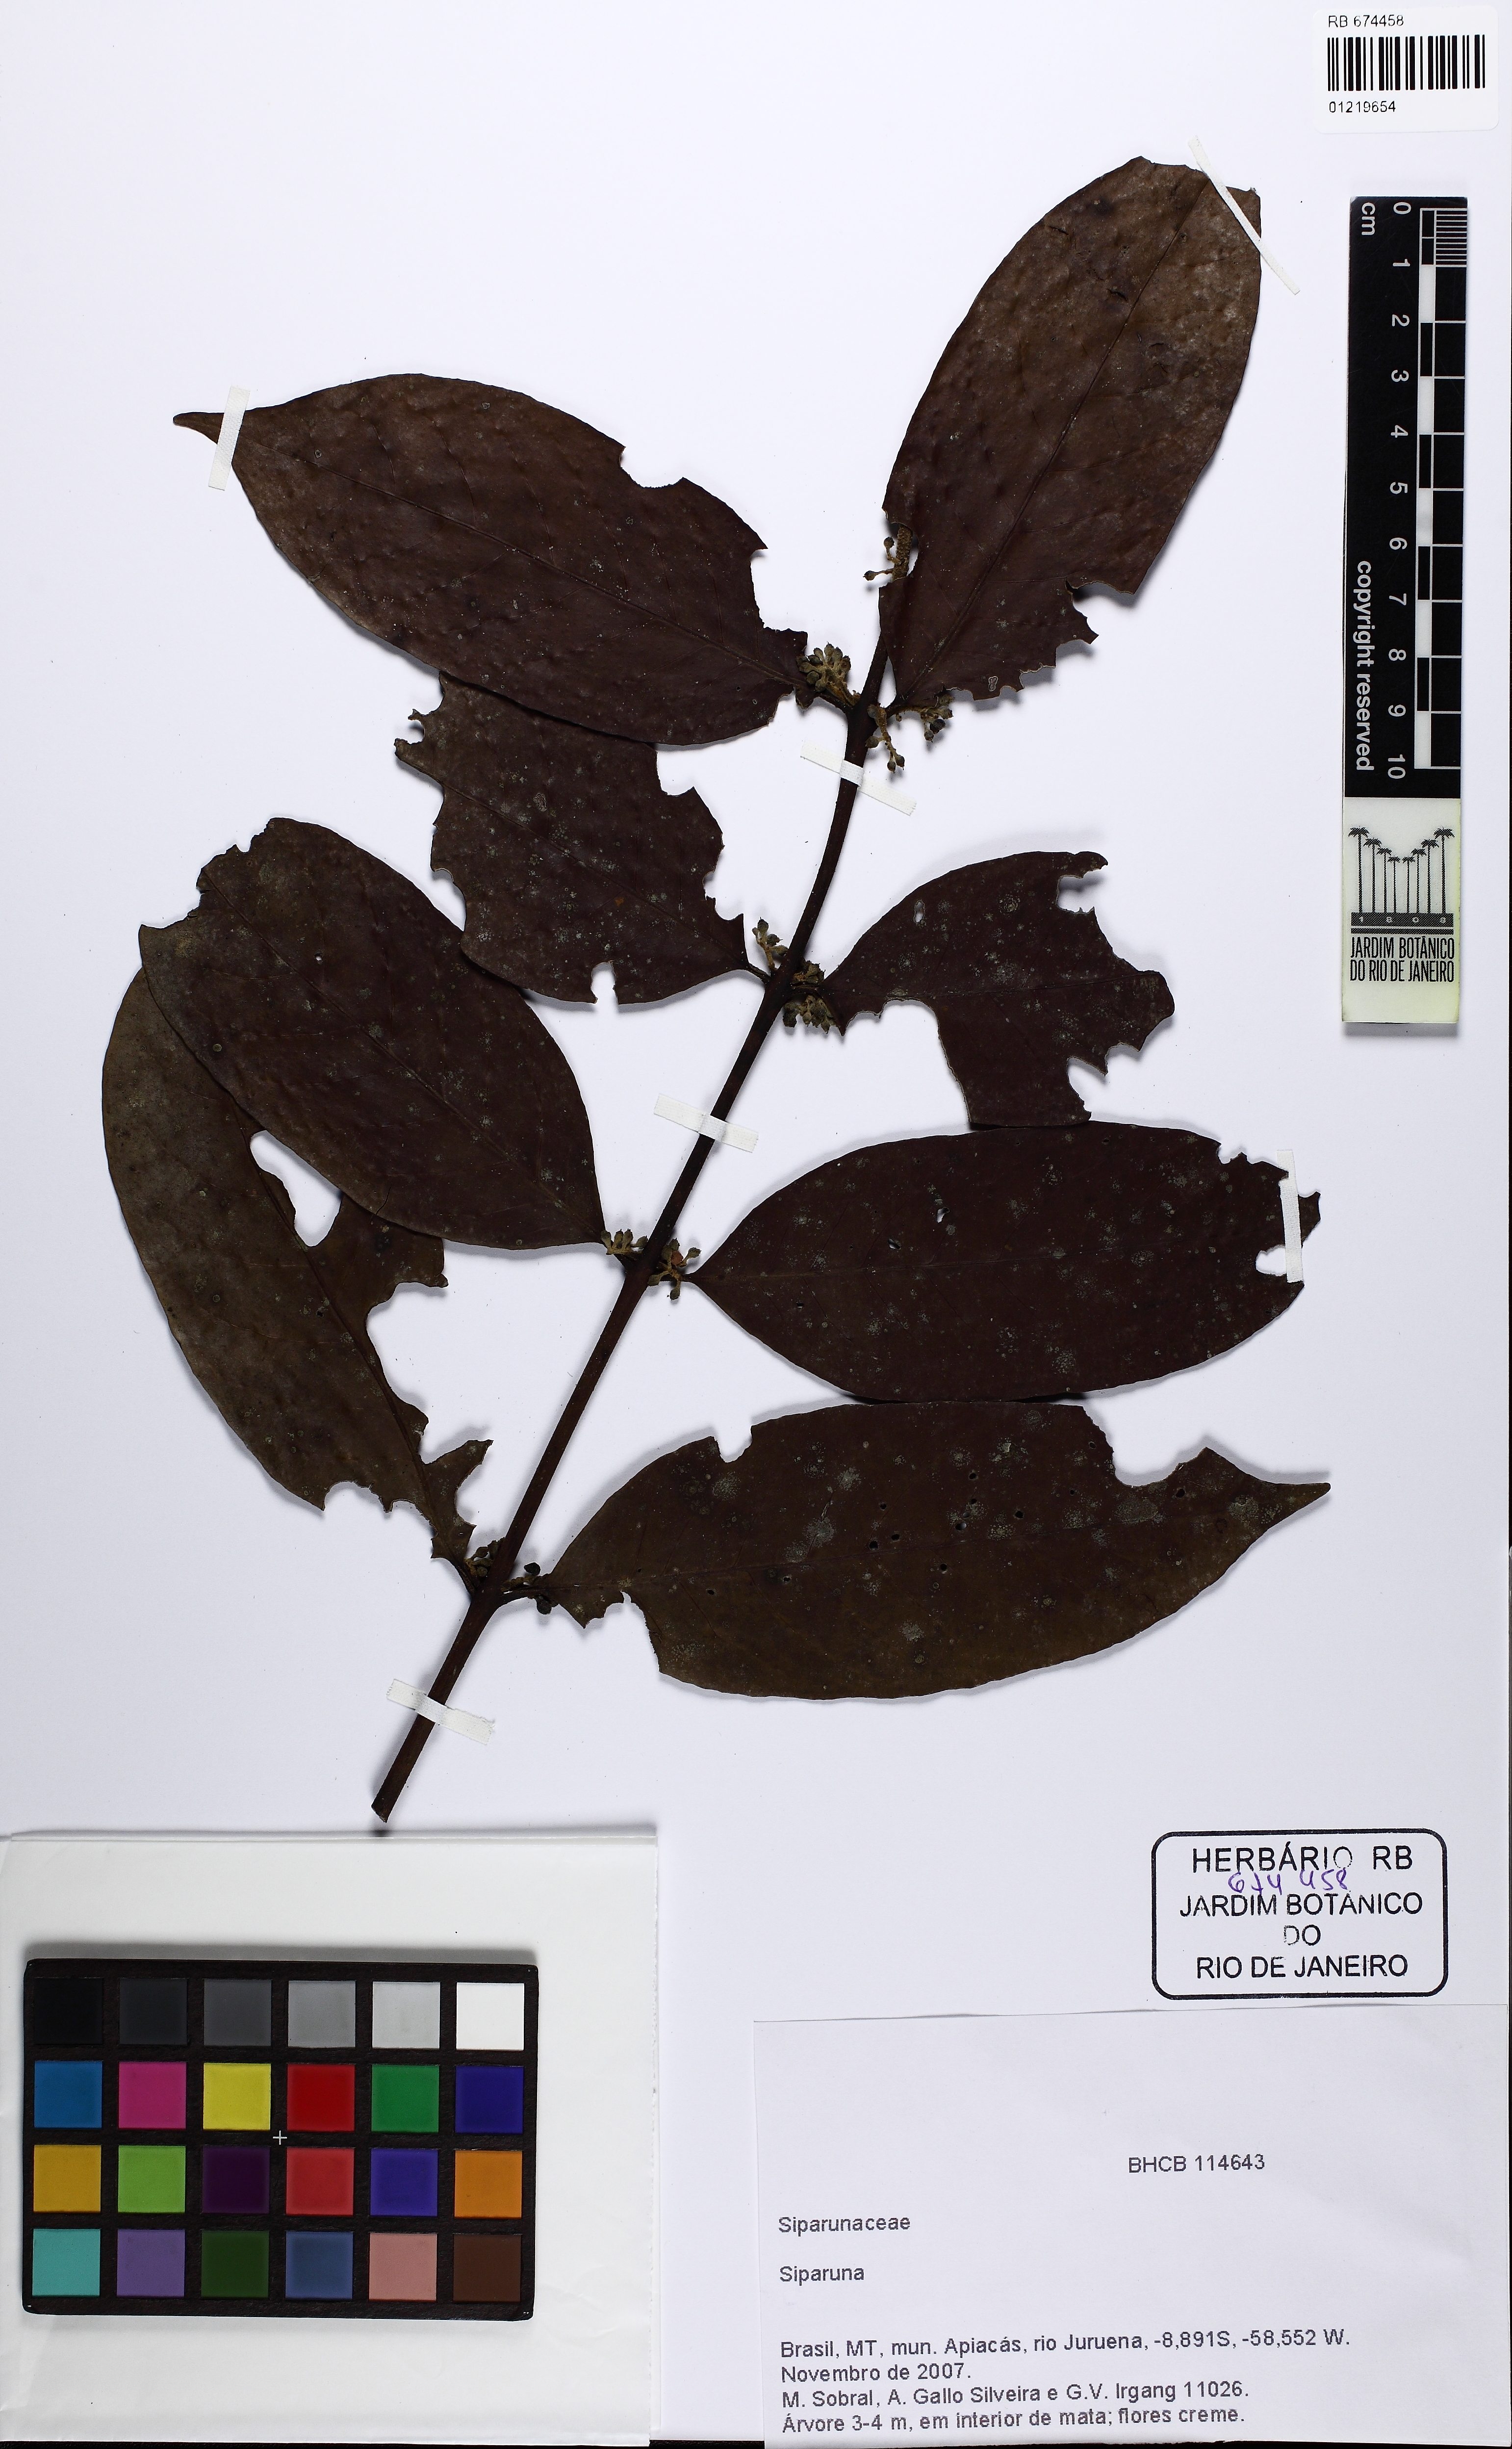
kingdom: Plantae
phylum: Tracheophyta
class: Magnoliopsida
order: Laurales
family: Siparunaceae
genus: Siparuna
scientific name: Siparuna
